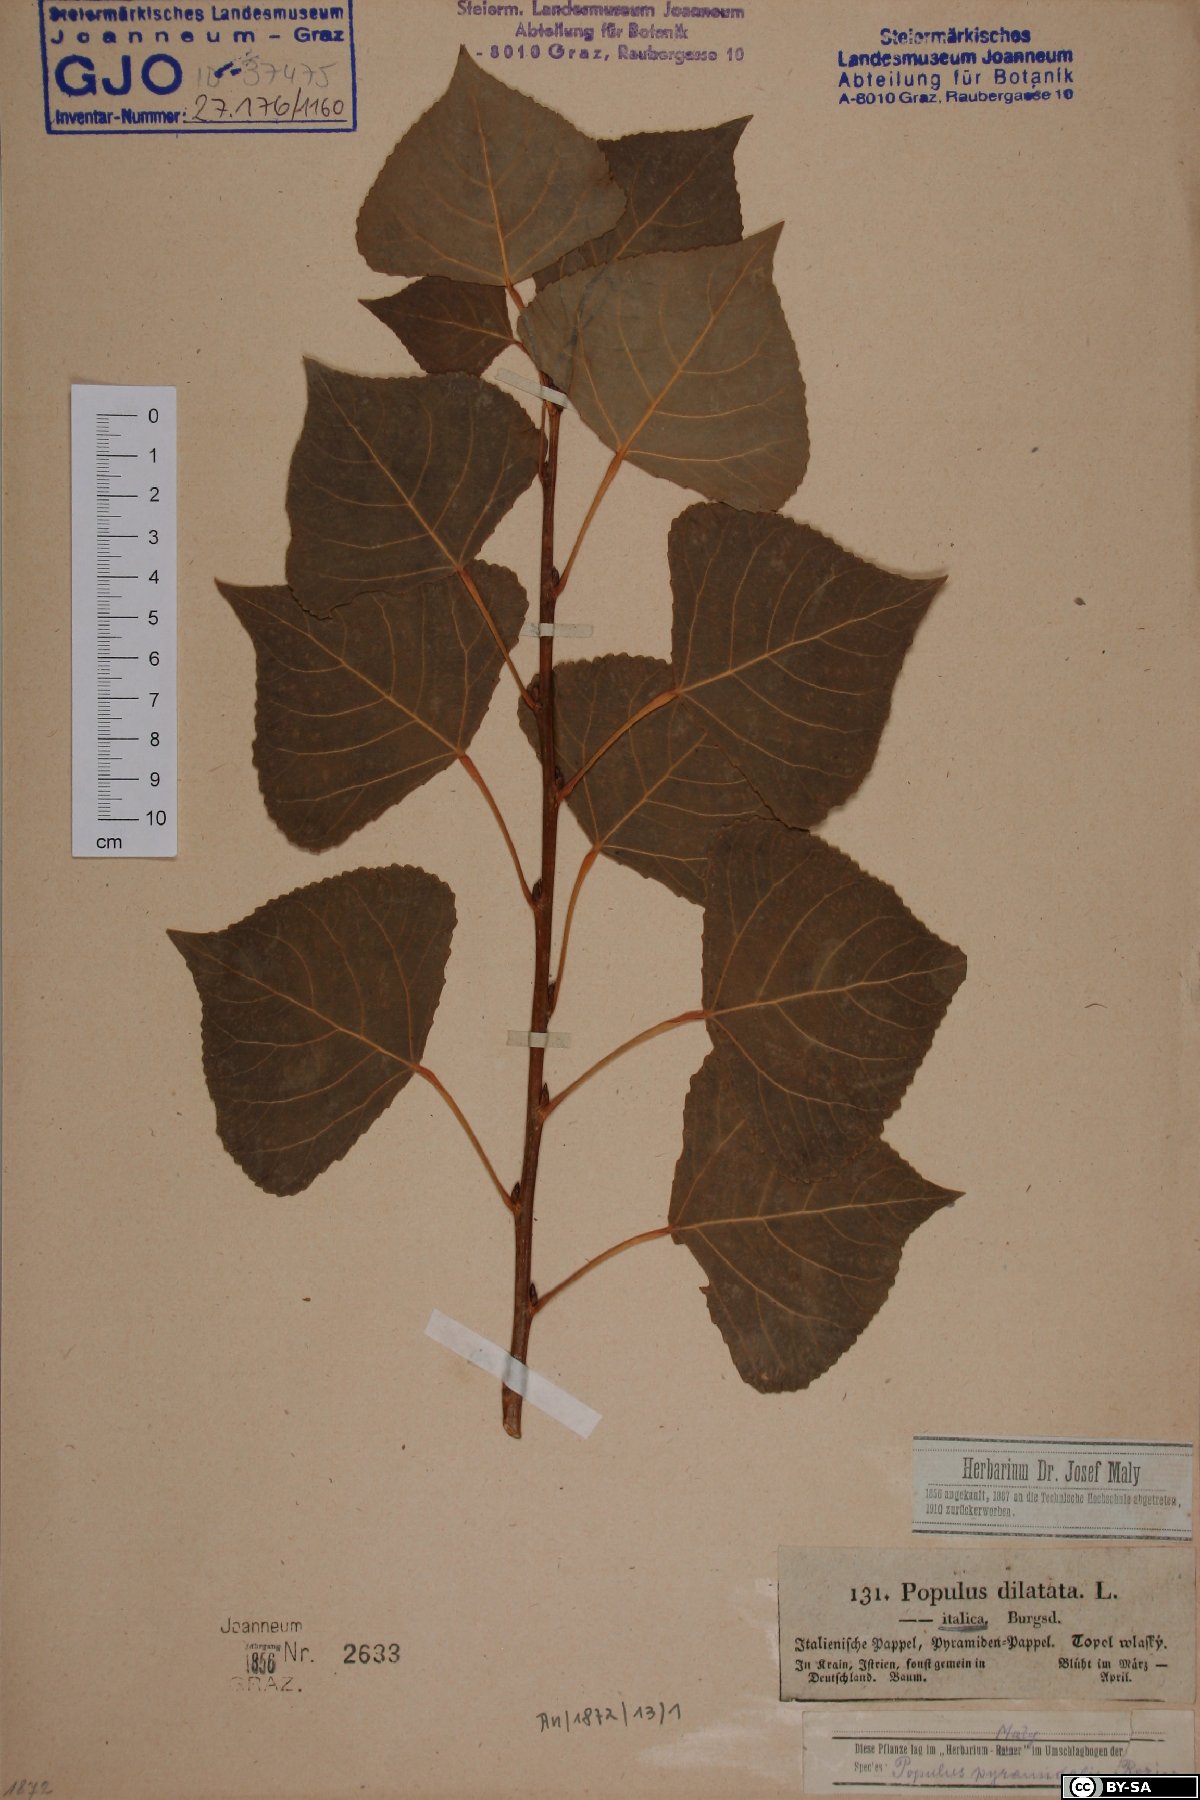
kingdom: Plantae
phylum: Tracheophyta
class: Magnoliopsida
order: Malpighiales
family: Salicaceae
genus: Populus
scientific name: Populus nigra
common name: Black poplar
